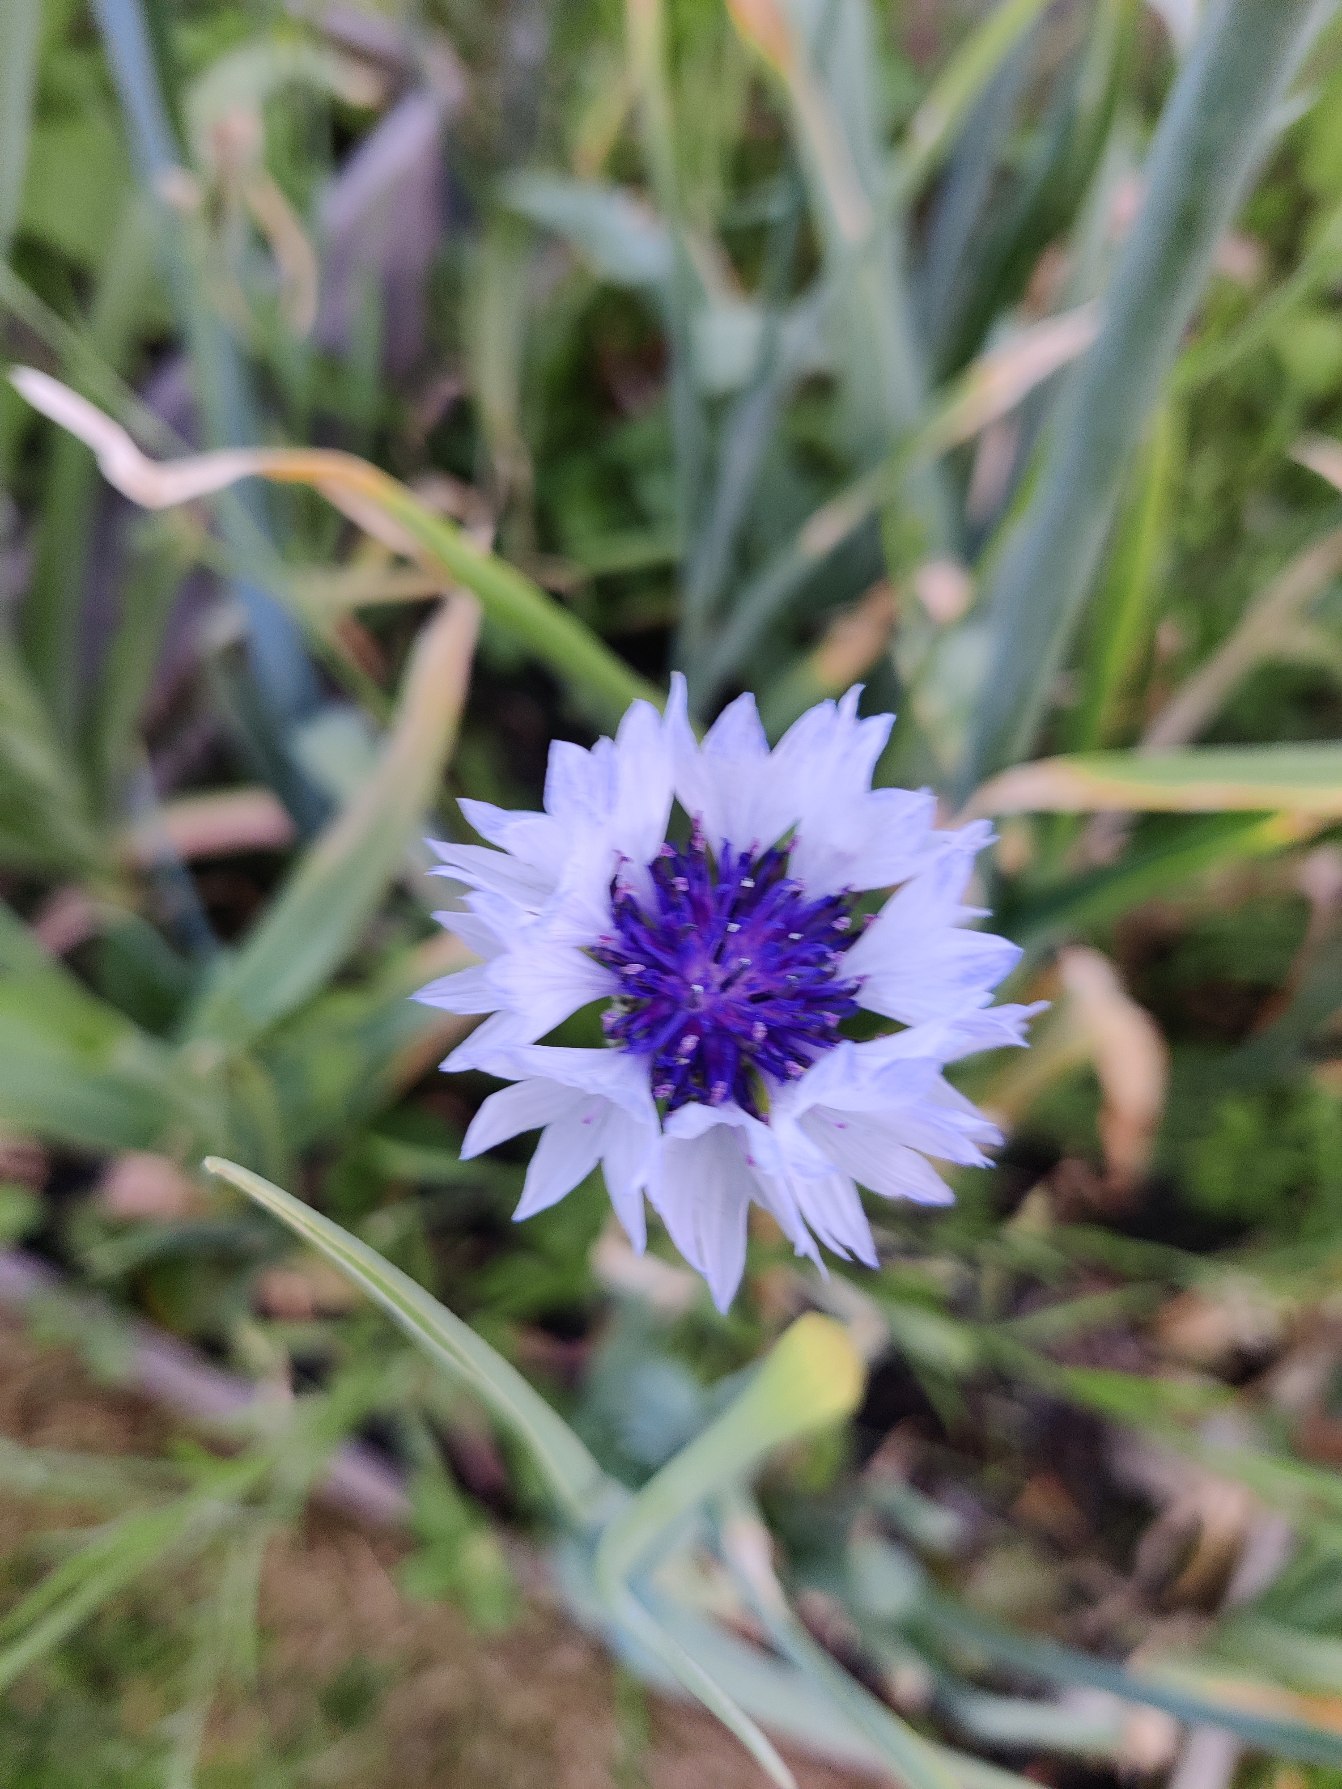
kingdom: Plantae
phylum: Tracheophyta
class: Magnoliopsida
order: Asterales
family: Asteraceae
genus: Centaurea
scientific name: Centaurea cyanus
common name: Kornblomst
